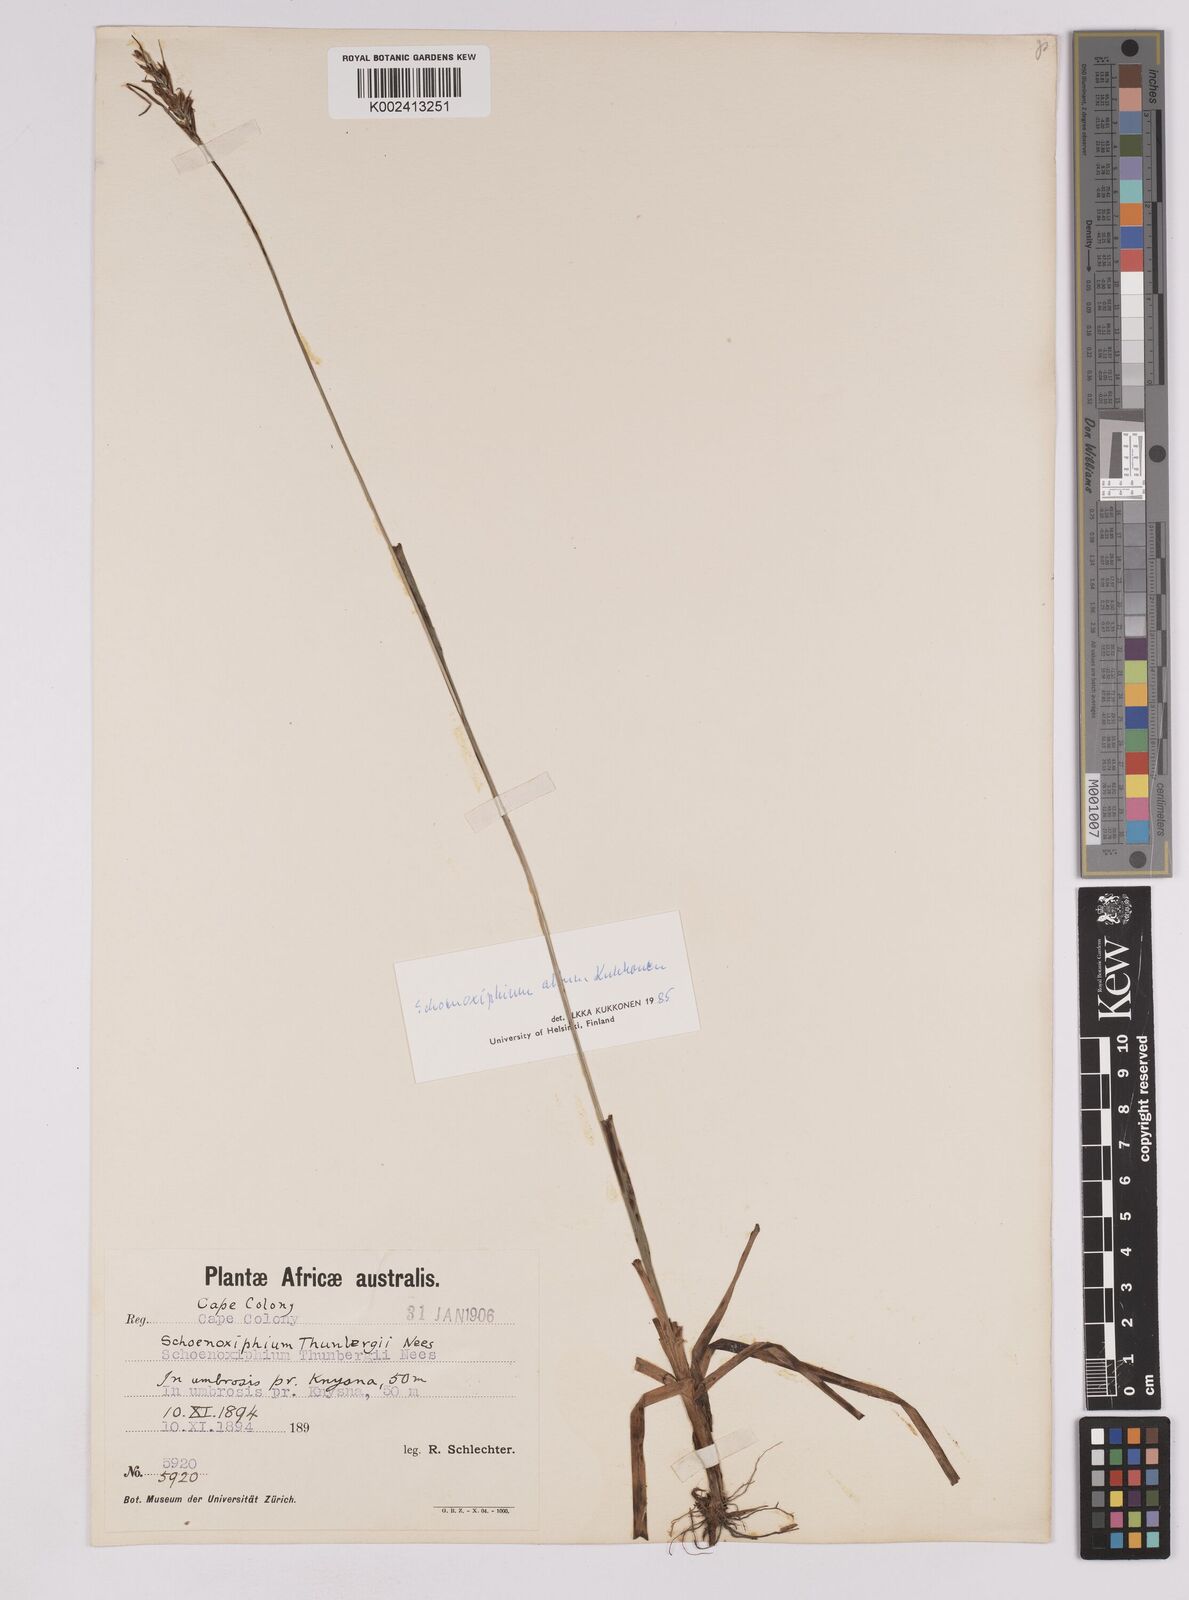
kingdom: Plantae
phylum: Tracheophyta
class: Liliopsida
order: Poales
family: Cyperaceae
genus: Carex
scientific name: Carex lancea
